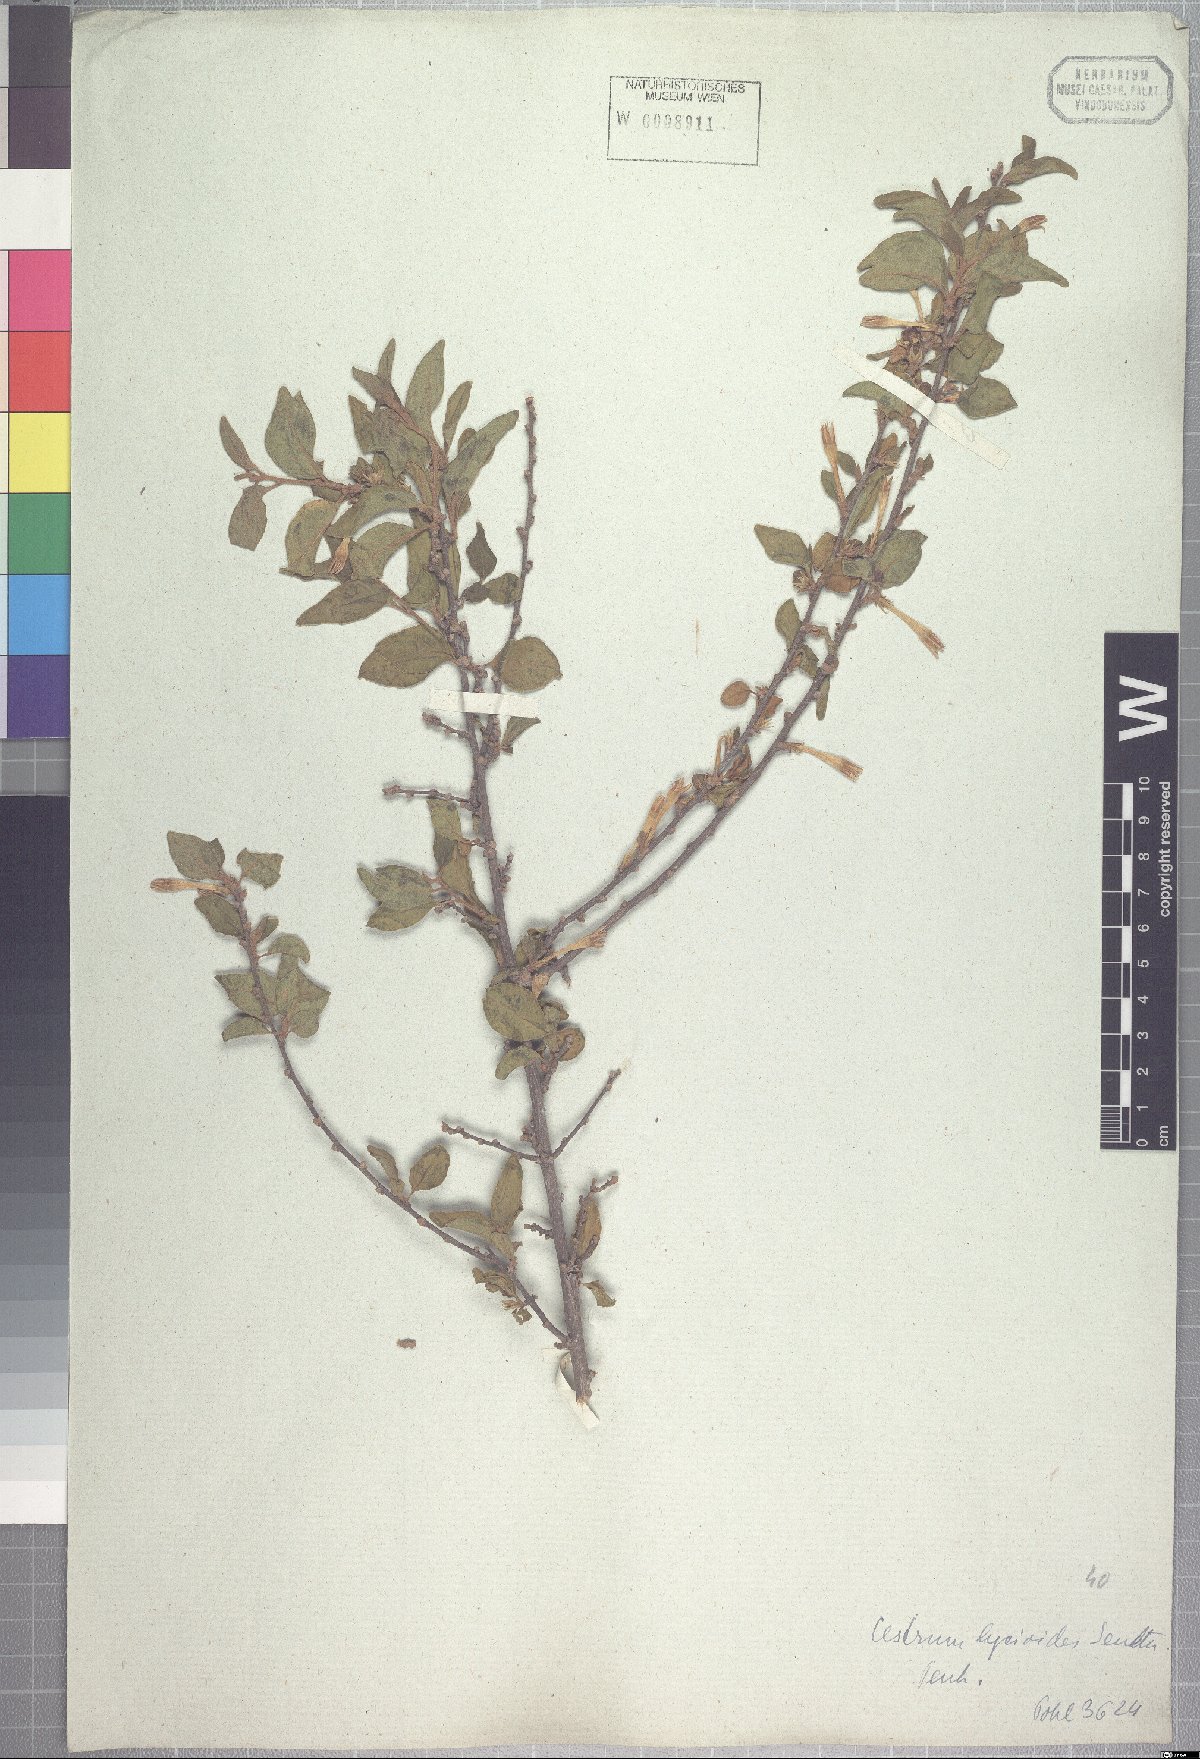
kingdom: Plantae
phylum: Tracheophyta
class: Magnoliopsida
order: Solanales
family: Solanaceae
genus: Cestrum
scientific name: Cestrum gardneri
